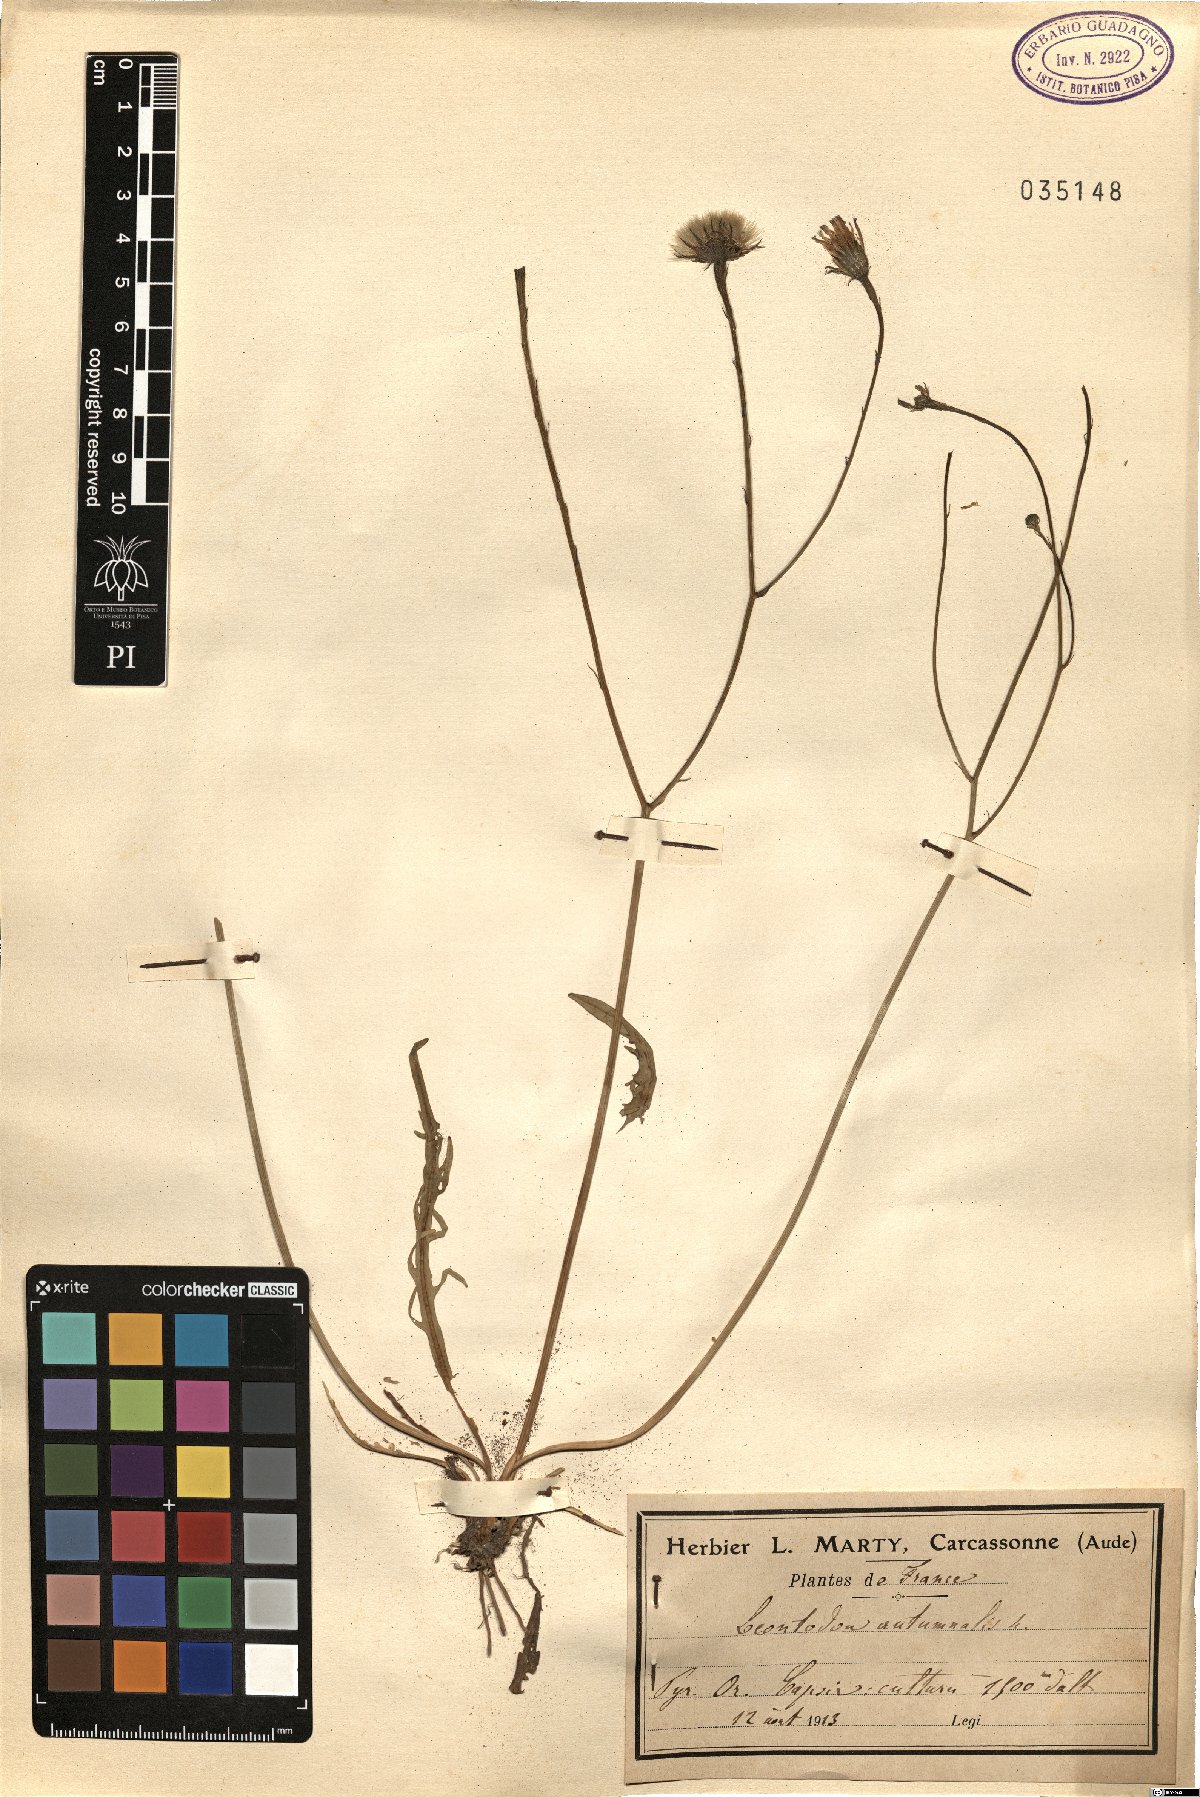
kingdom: Plantae
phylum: Tracheophyta
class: Magnoliopsida
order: Asterales
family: Asteraceae
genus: Scorzoneroides
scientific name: Scorzoneroides autumnalis
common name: Autumn hawkbit
